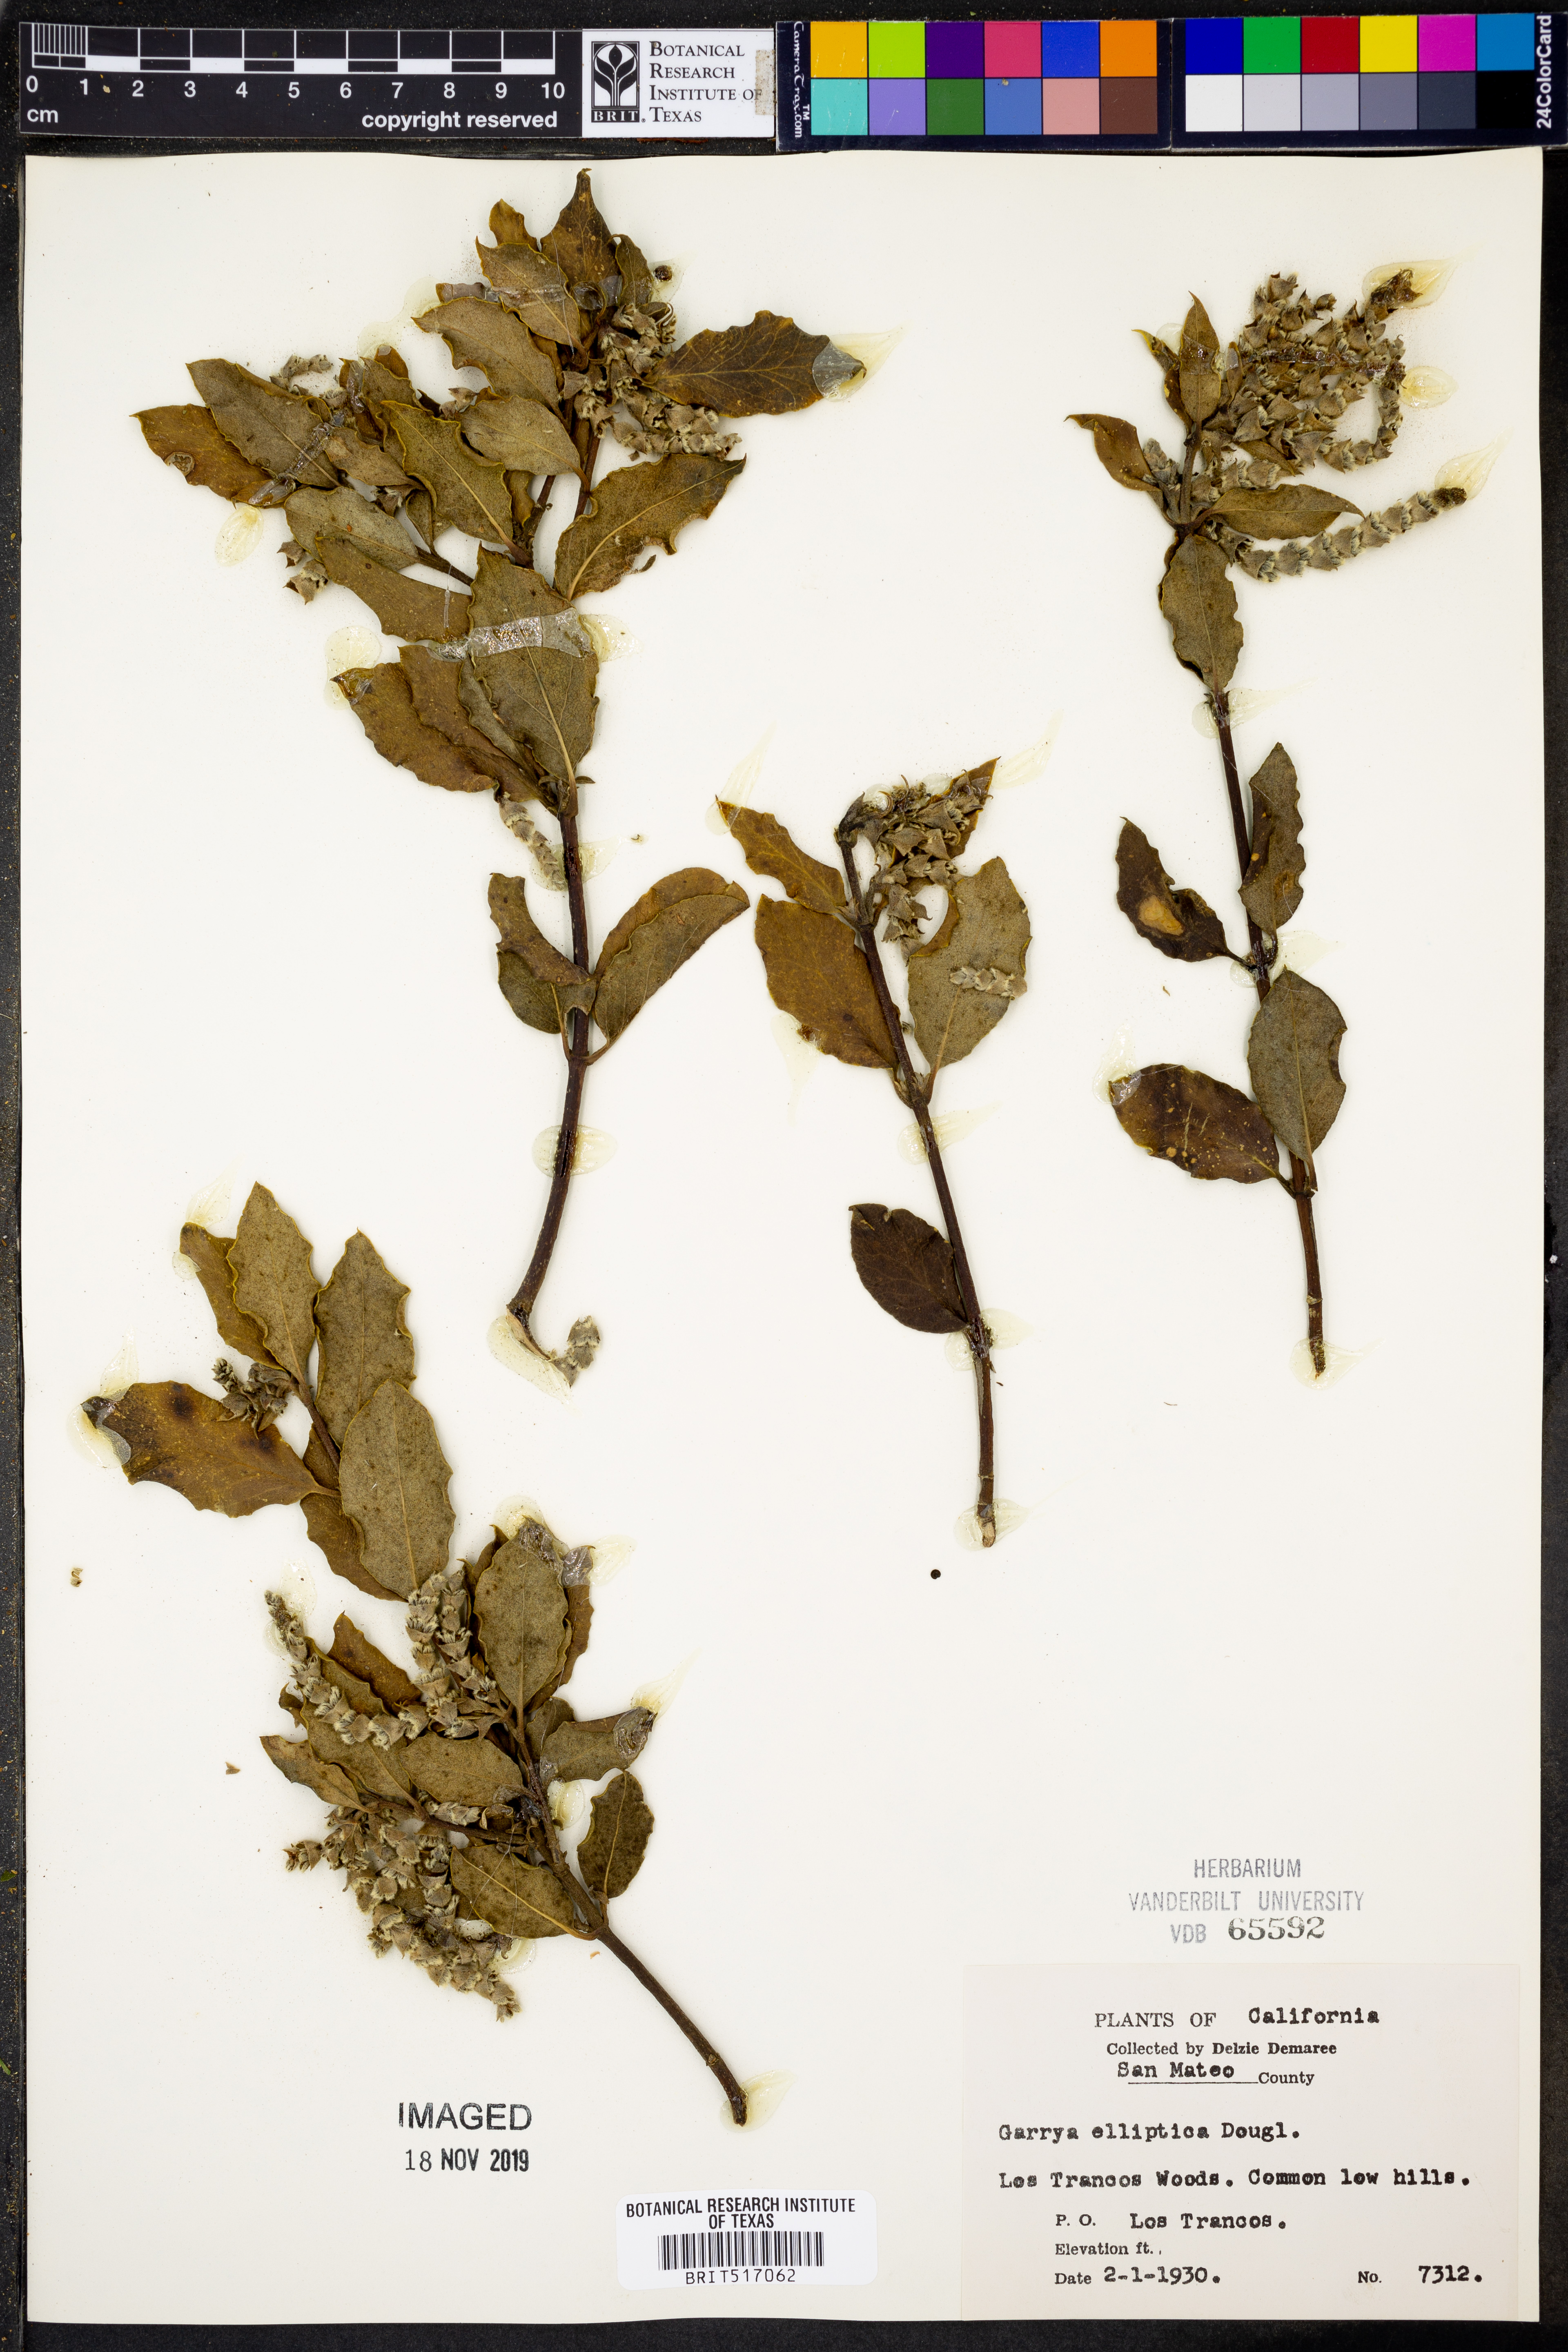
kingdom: Plantae
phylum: Tracheophyta
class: Magnoliopsida
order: Garryales
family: Garryaceae
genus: Garrya
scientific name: Garrya elliptica
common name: Silk-tassel
